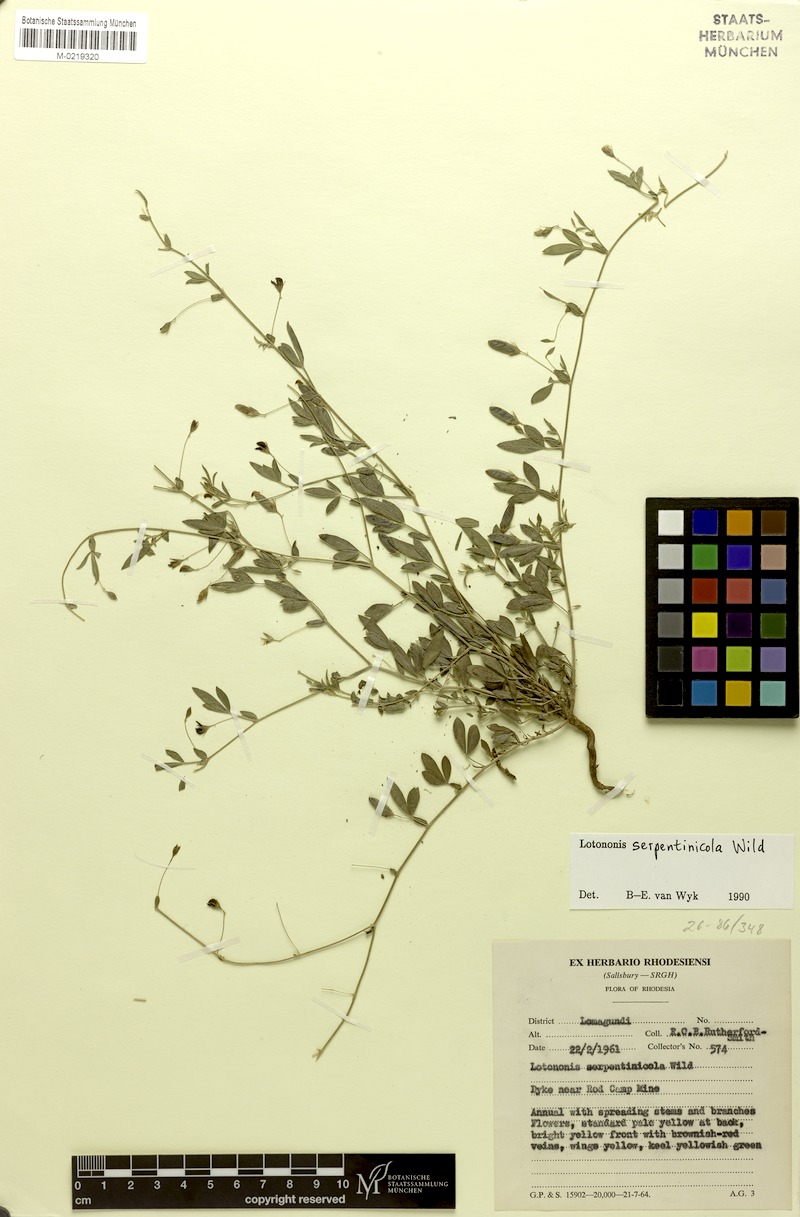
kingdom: Plantae
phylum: Tracheophyta
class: Magnoliopsida
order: Fabales
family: Fabaceae
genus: Lotononis
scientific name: Lotononis serpentinicola
